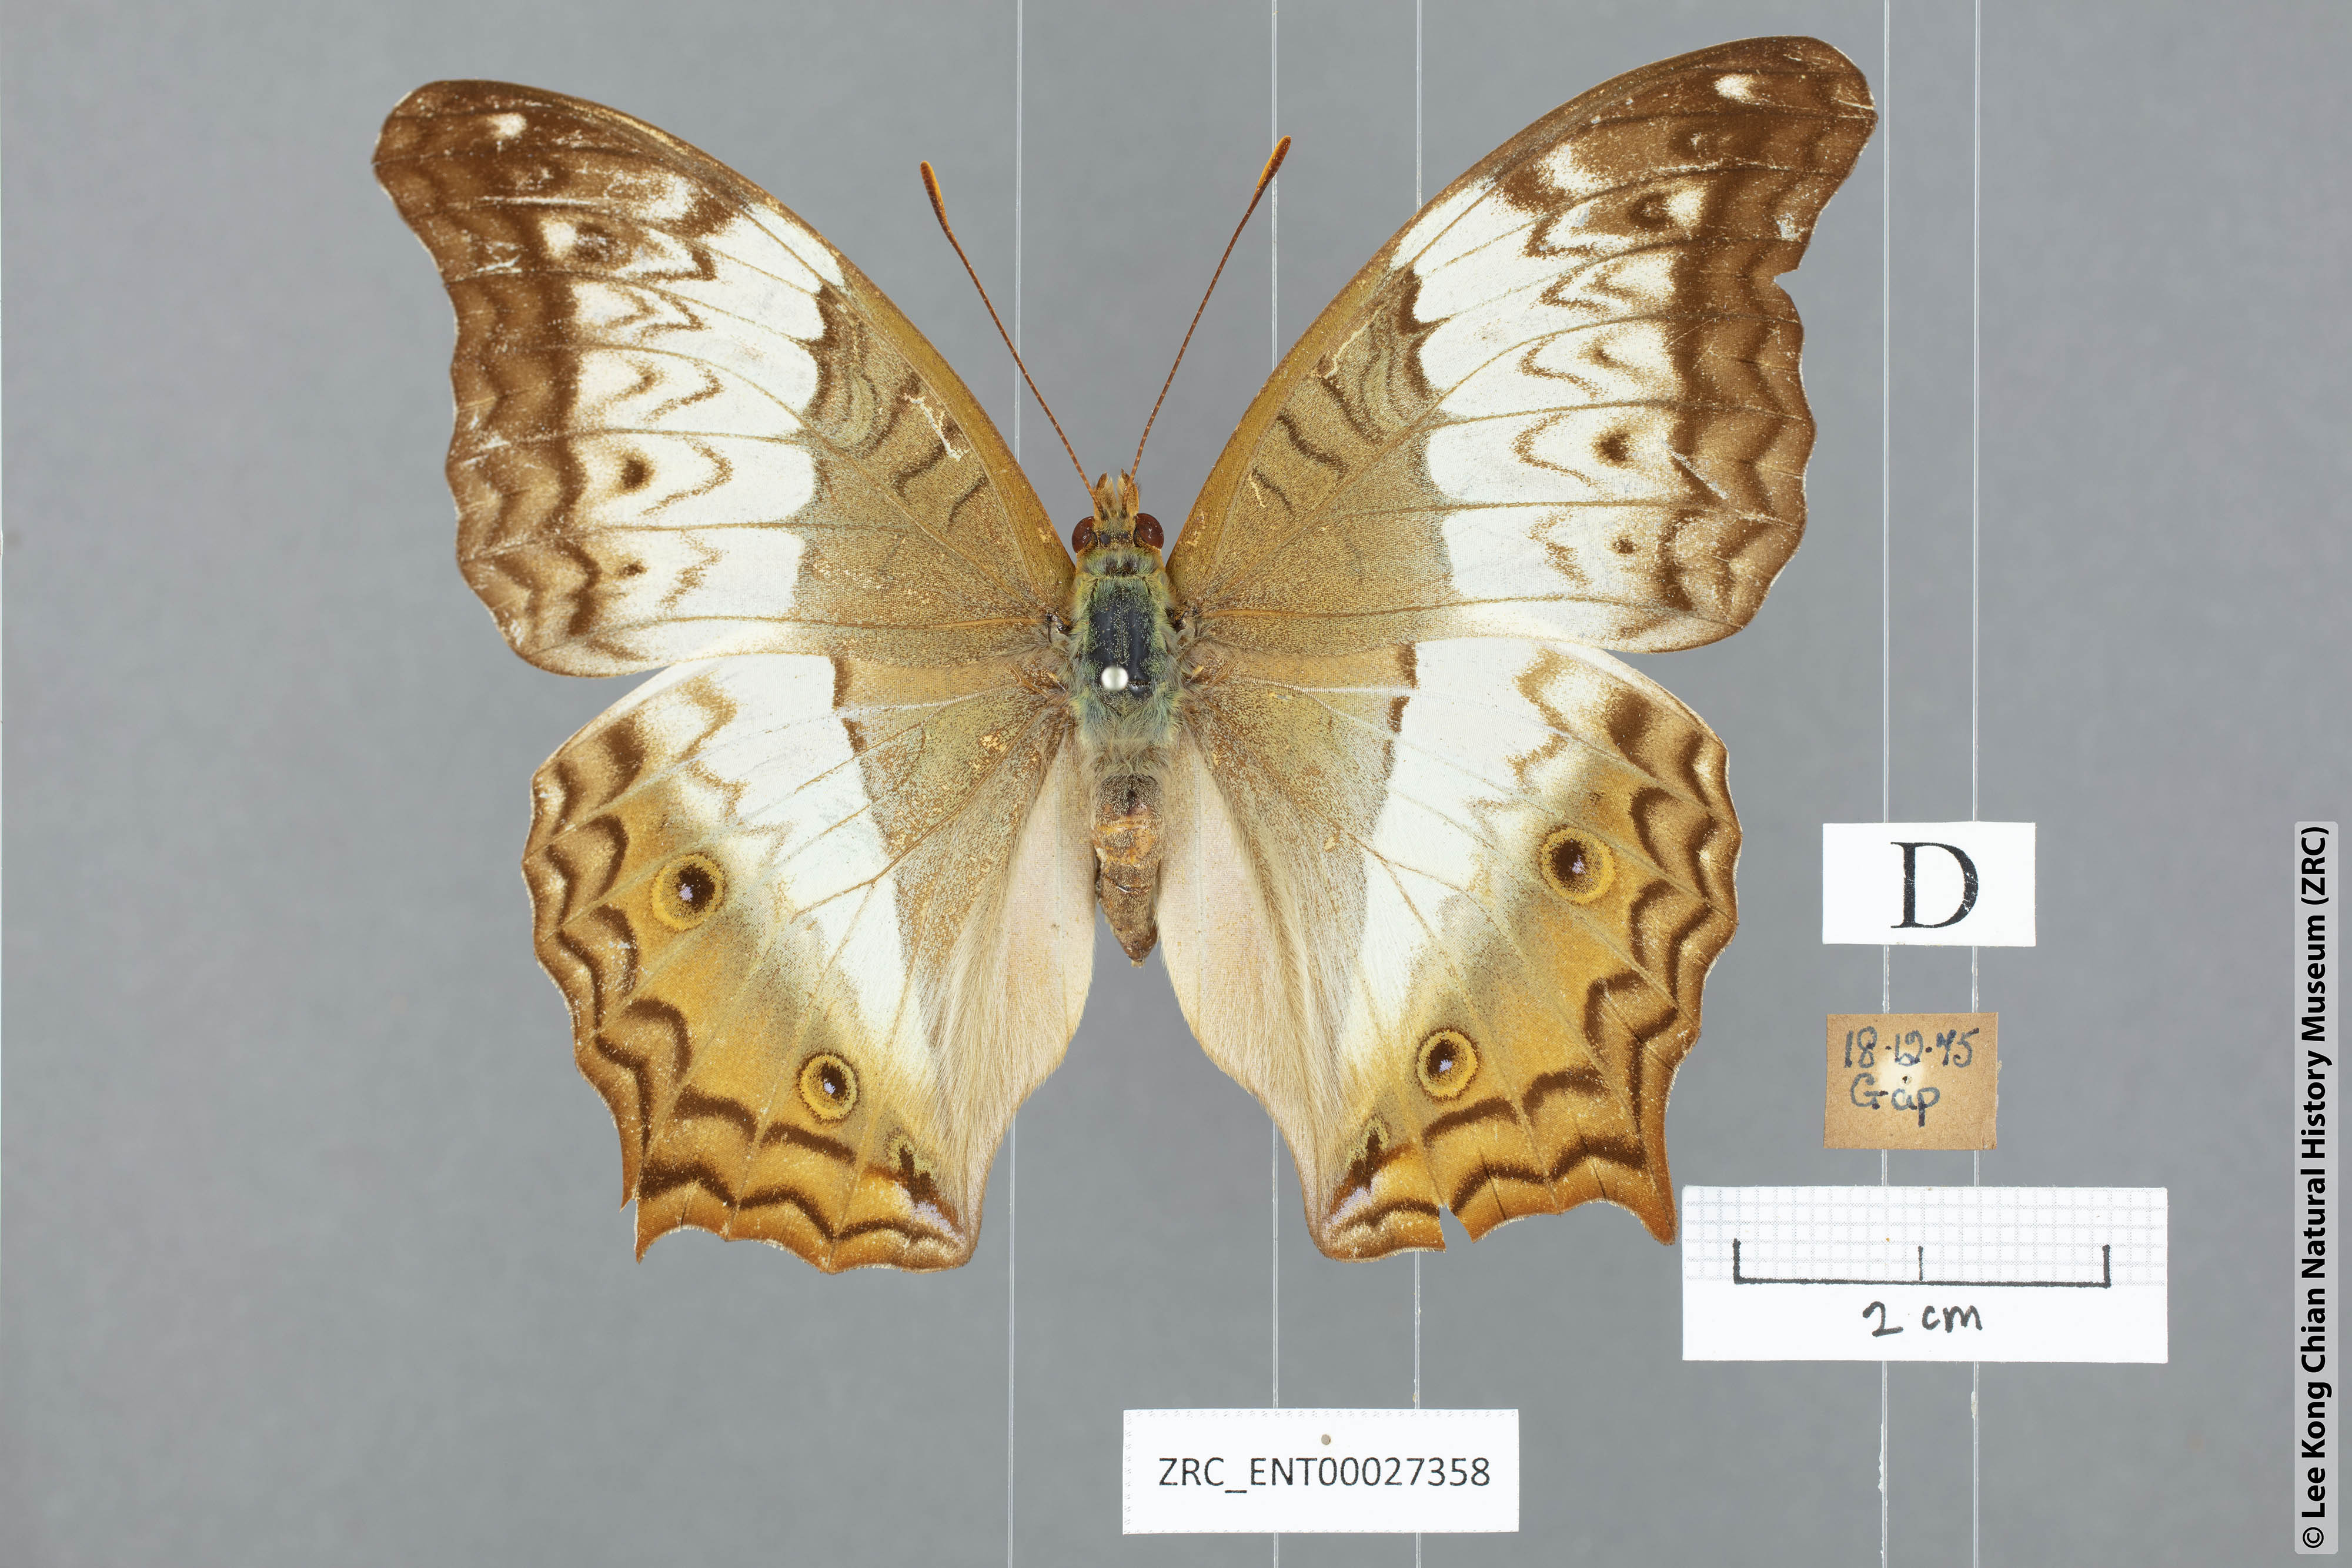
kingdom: Animalia
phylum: Arthropoda
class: Insecta
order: Lepidoptera
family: Nymphalidae
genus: Vindula
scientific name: Vindula erota
